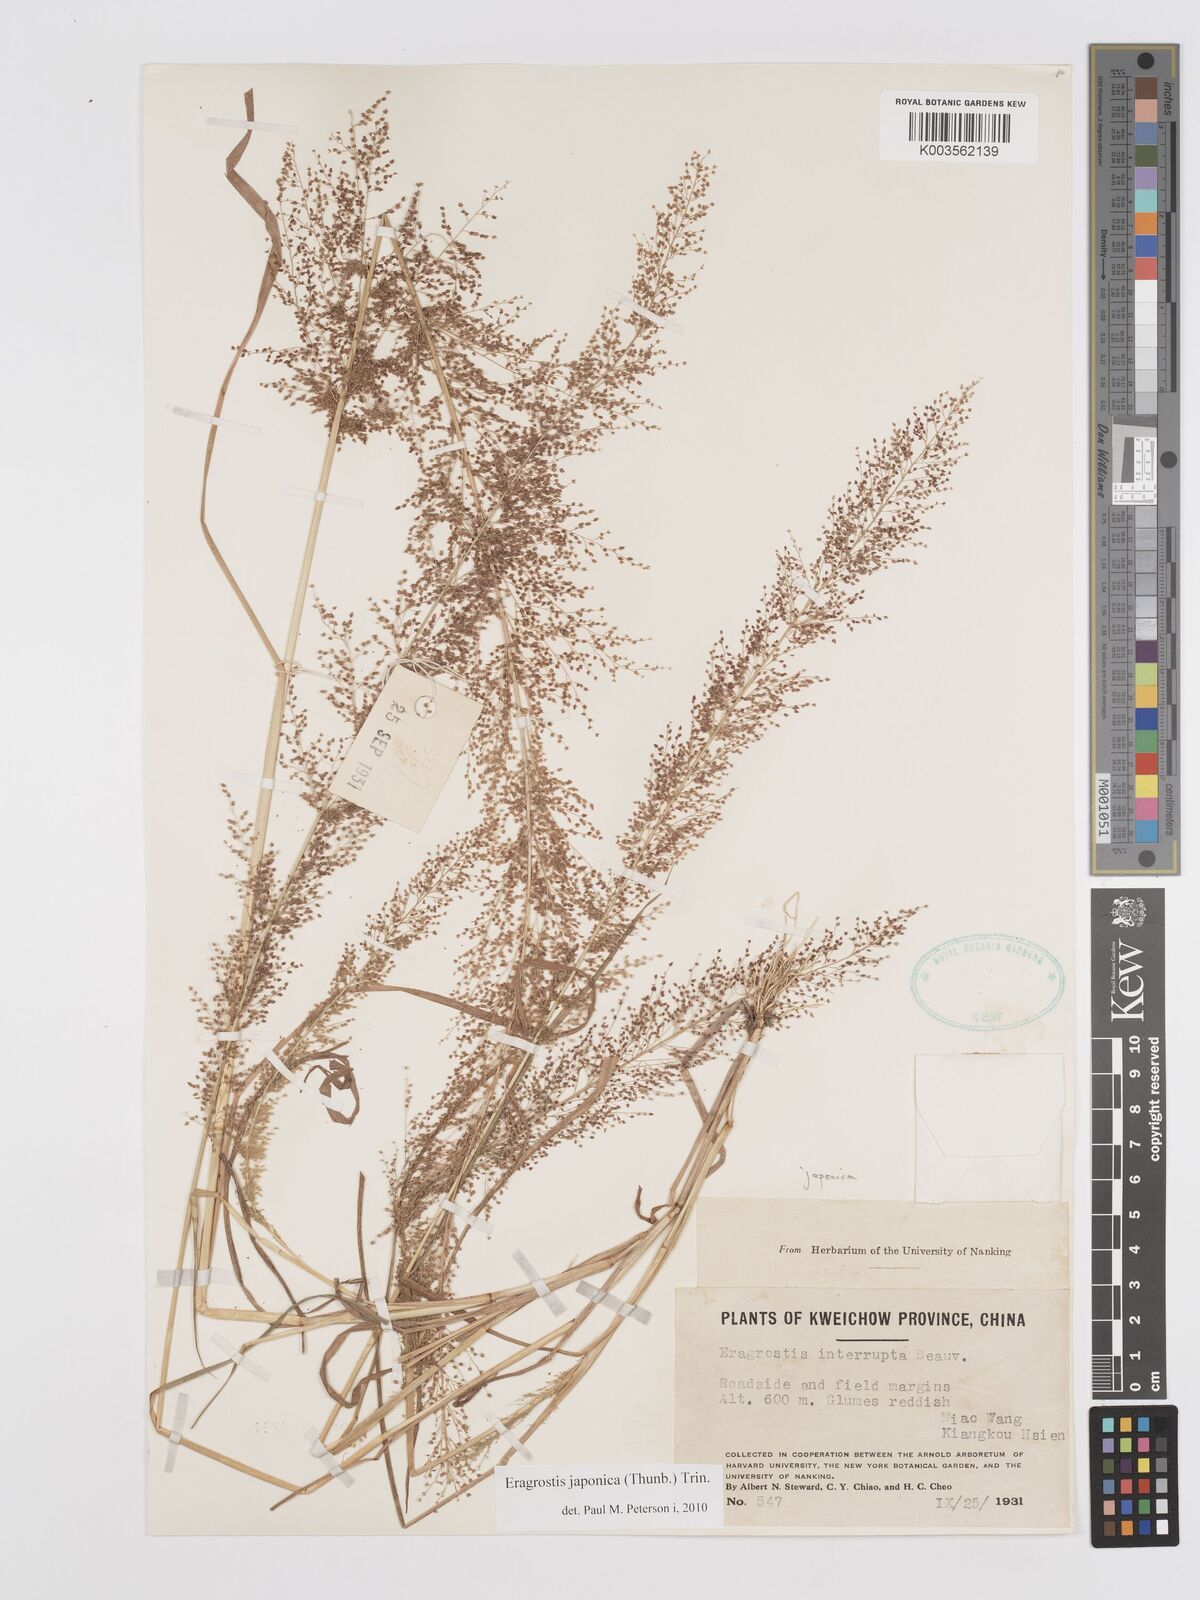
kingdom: Plantae
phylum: Tracheophyta
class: Liliopsida
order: Poales
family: Poaceae
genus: Eragrostis
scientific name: Eragrostis japonica
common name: Pond lovegrass
